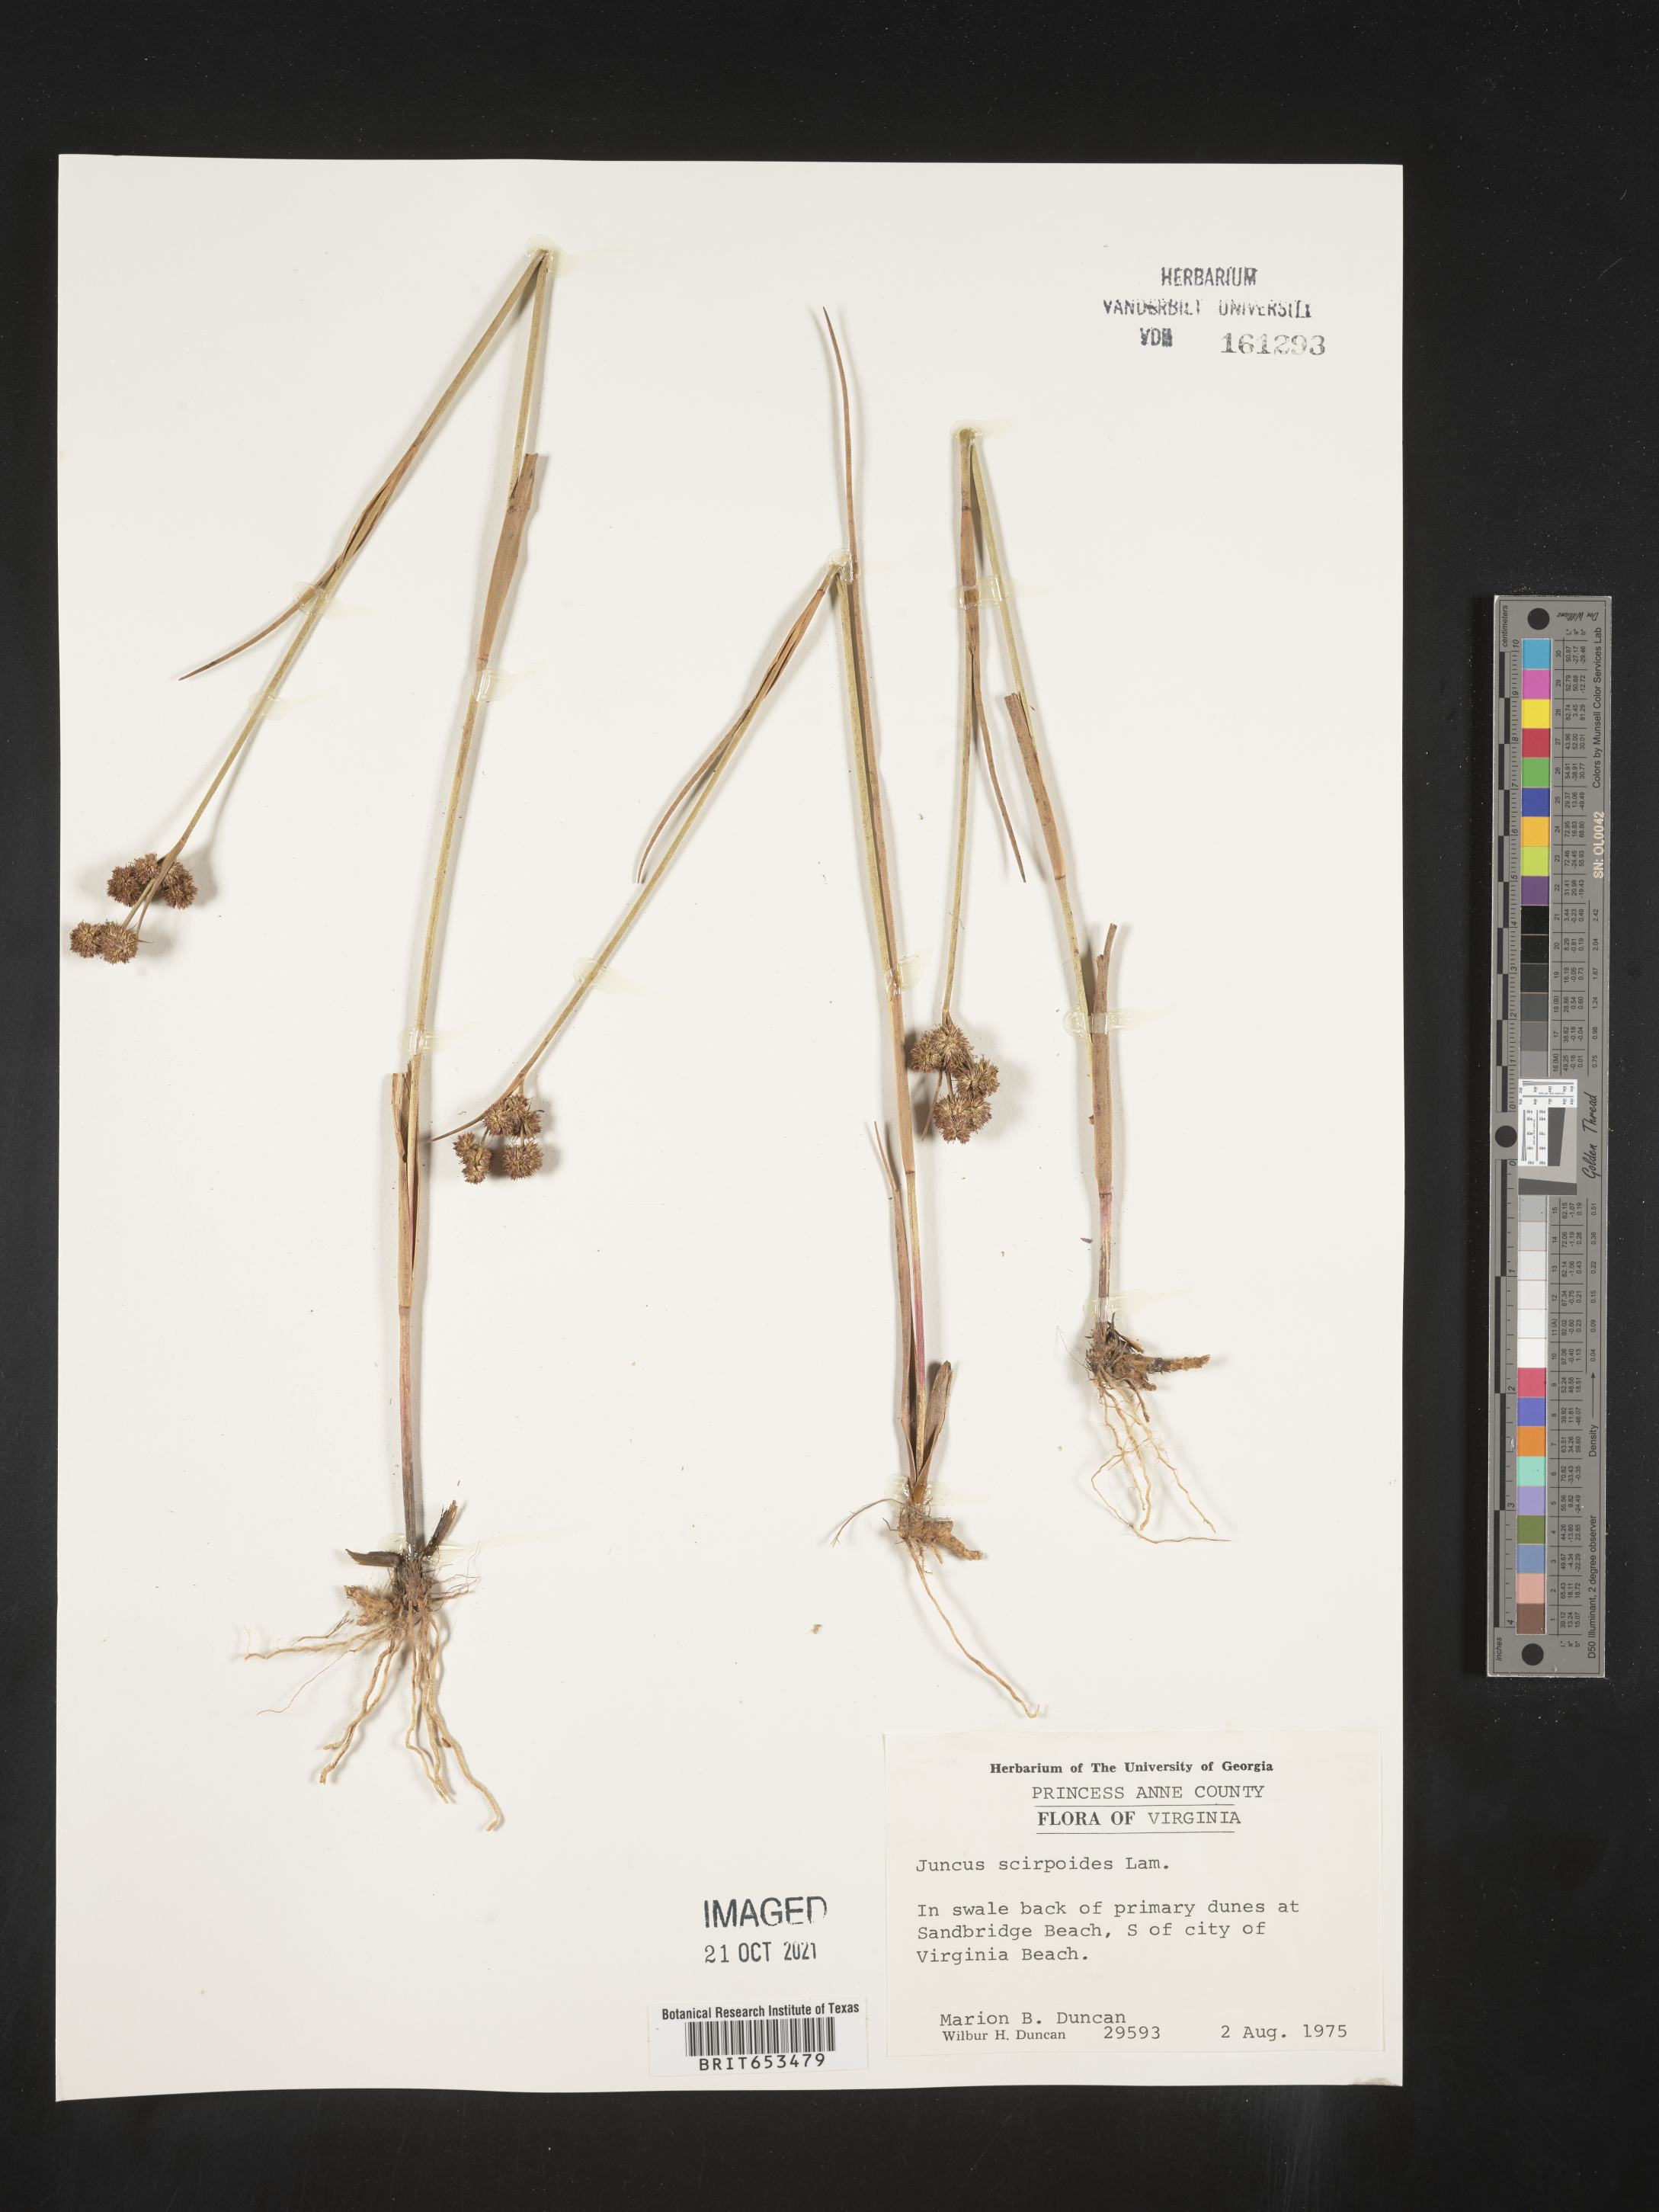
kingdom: Plantae
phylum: Tracheophyta
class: Liliopsida
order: Poales
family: Juncaceae
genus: Juncus
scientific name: Juncus scirpoides
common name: Needlepod rush
